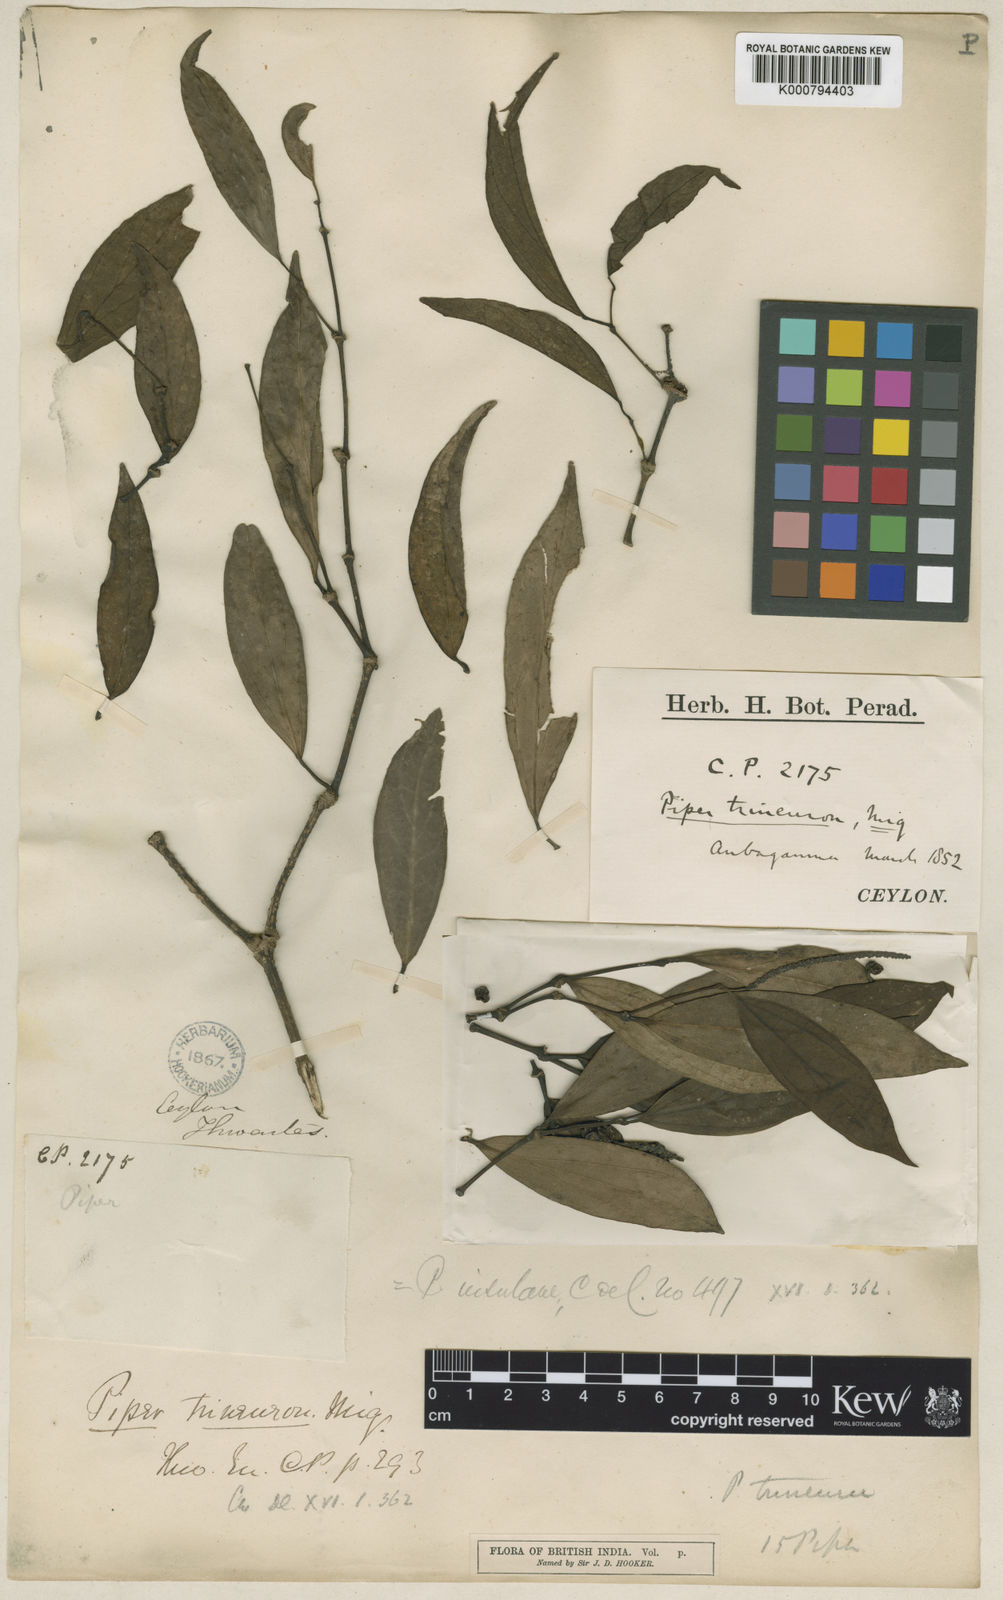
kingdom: Plantae
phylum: Tracheophyta
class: Magnoliopsida
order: Piperales
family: Piperaceae
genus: Piper
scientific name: Piper trineuron
